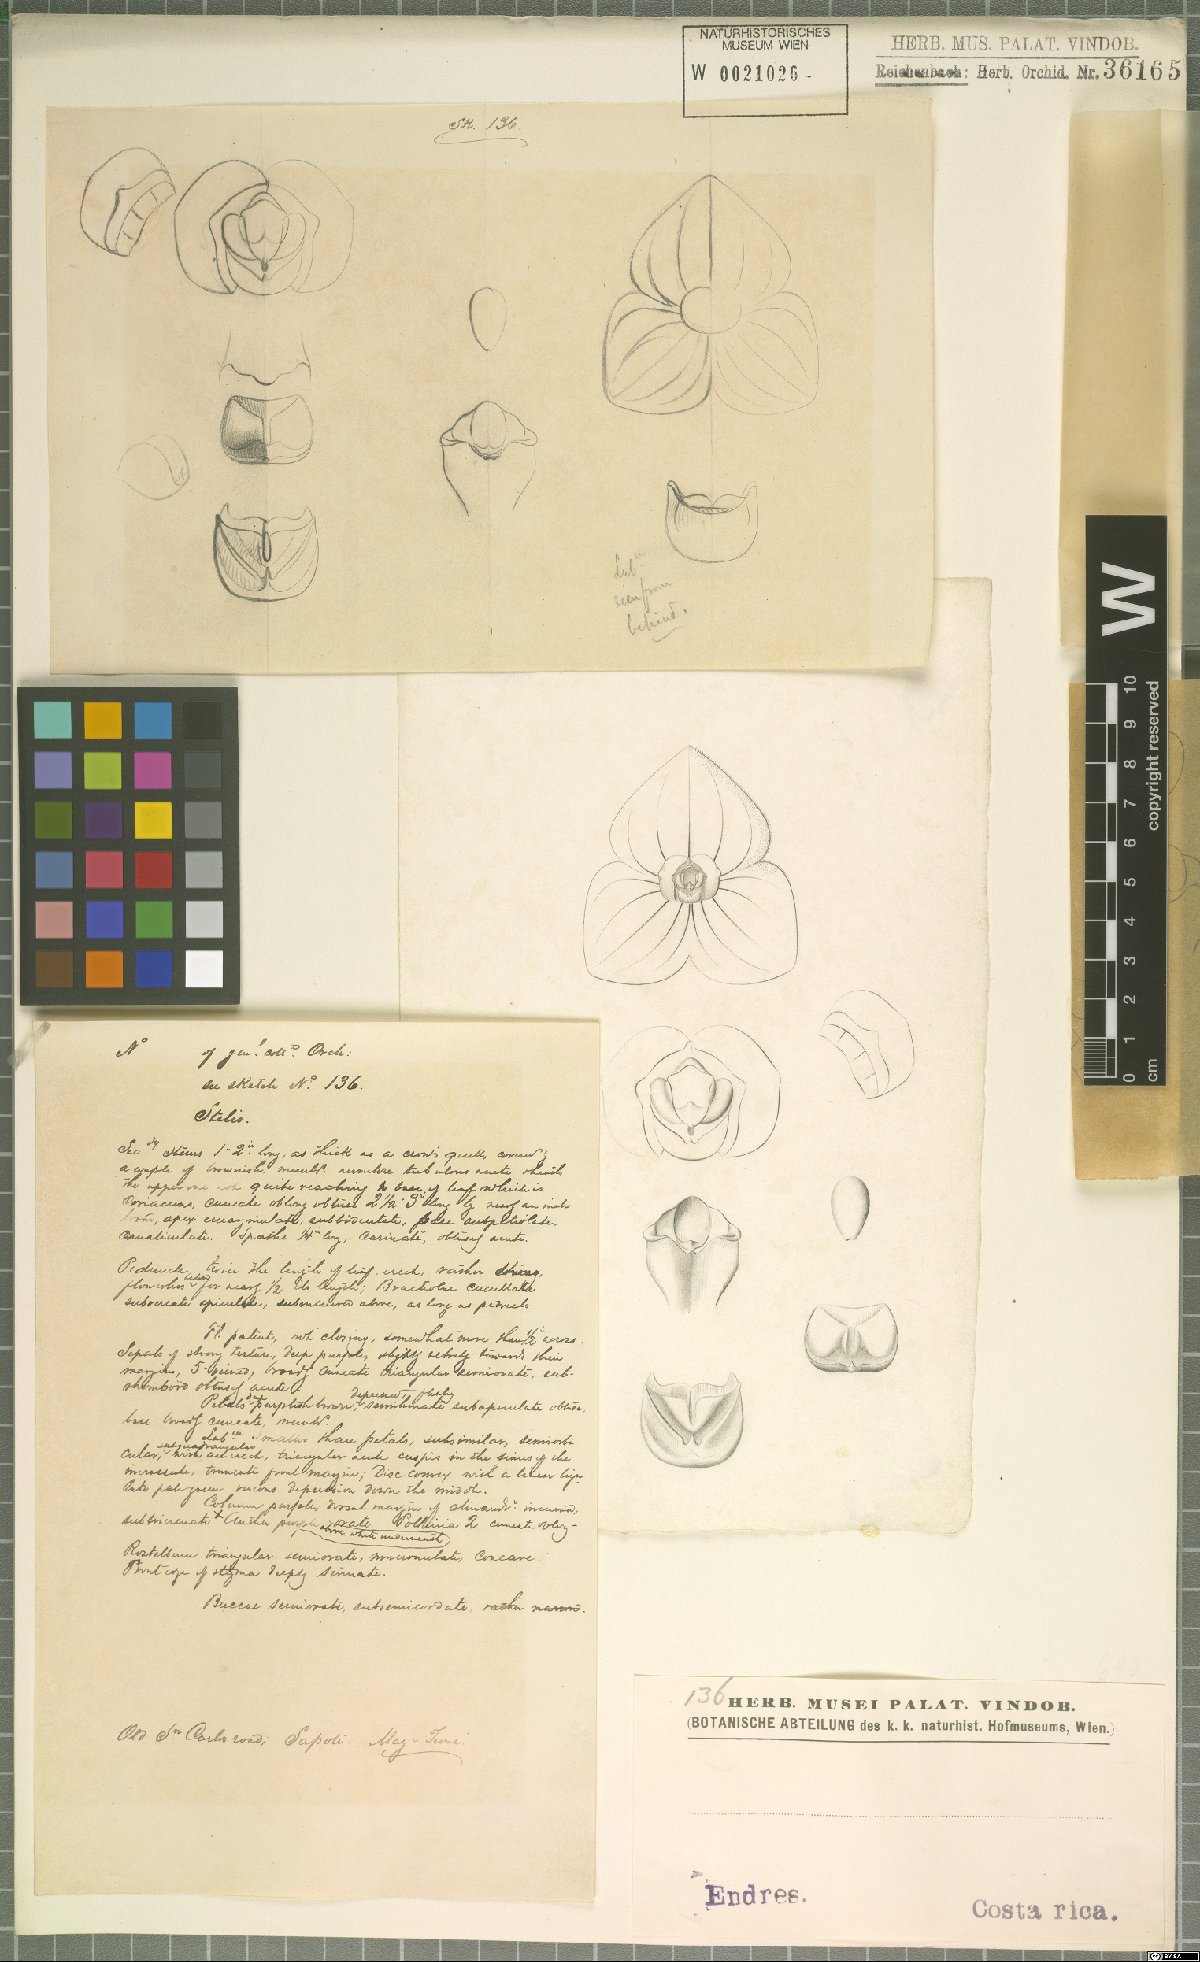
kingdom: Plantae
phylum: Tracheophyta
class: Liliopsida
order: Asparagales
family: Orchidaceae
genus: Stelis
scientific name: Stelis
